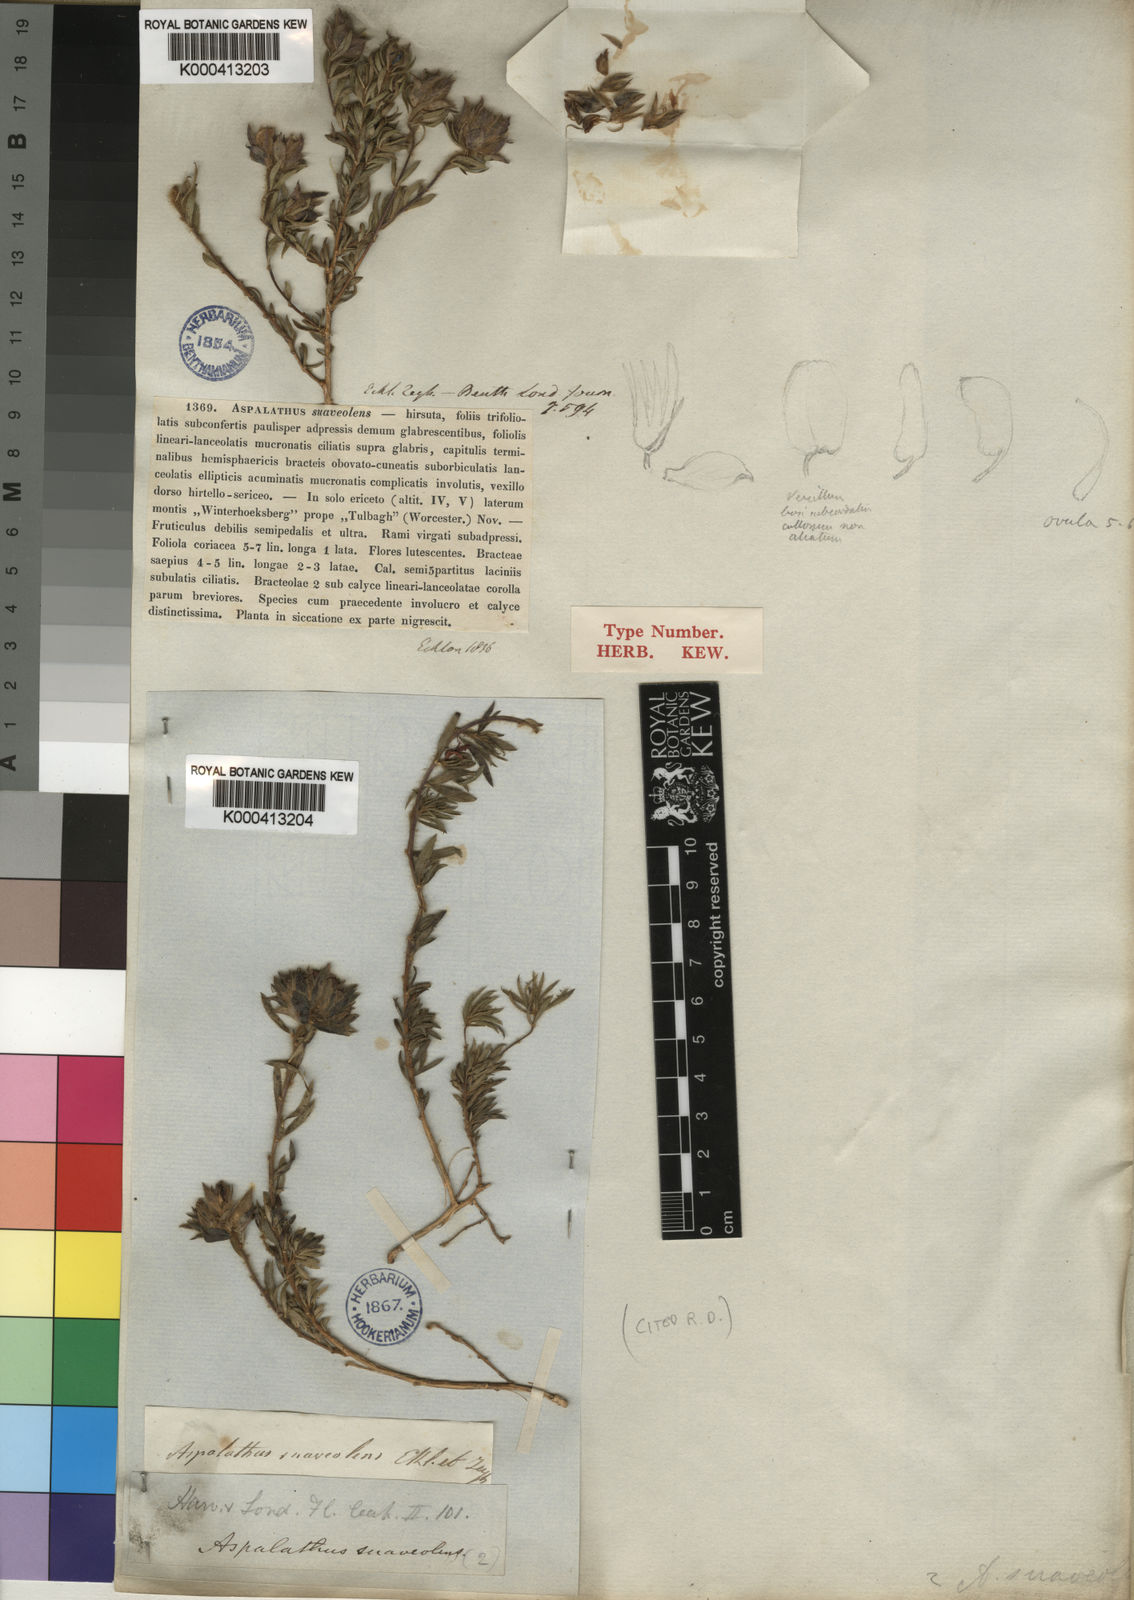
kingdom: Plantae
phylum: Tracheophyta
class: Magnoliopsida
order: Fabales
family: Fabaceae
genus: Aspalathus
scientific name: Aspalathus suaveolens
